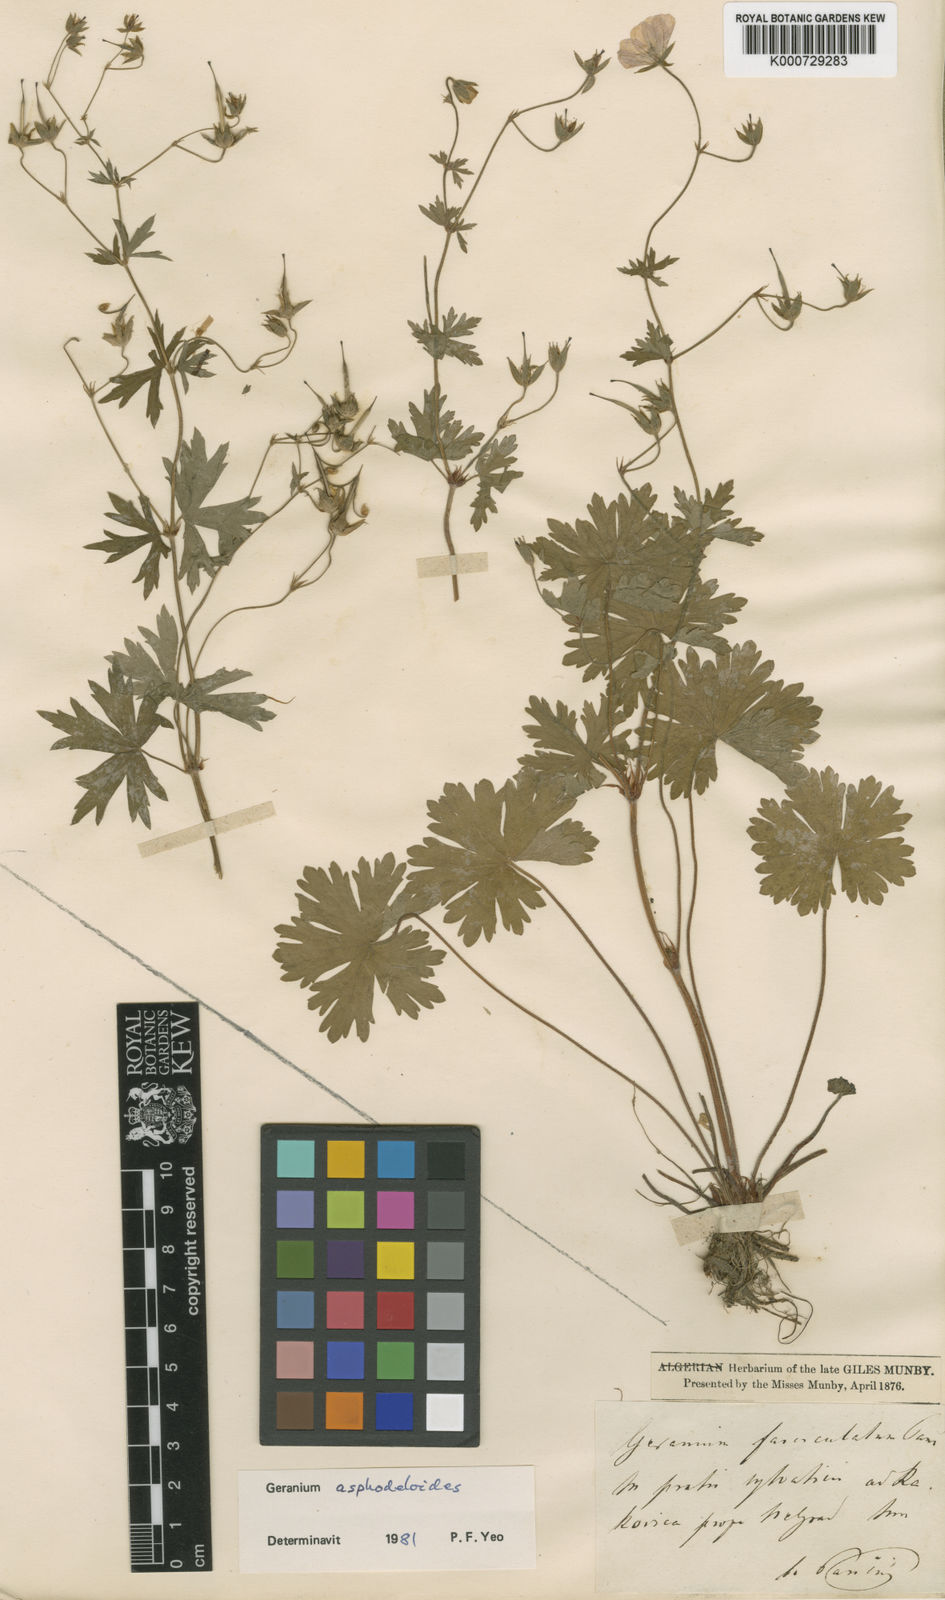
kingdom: Plantae
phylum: Tracheophyta
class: Magnoliopsida
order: Geraniales
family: Geraniaceae
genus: Geranium
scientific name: Geranium asphodeloides
